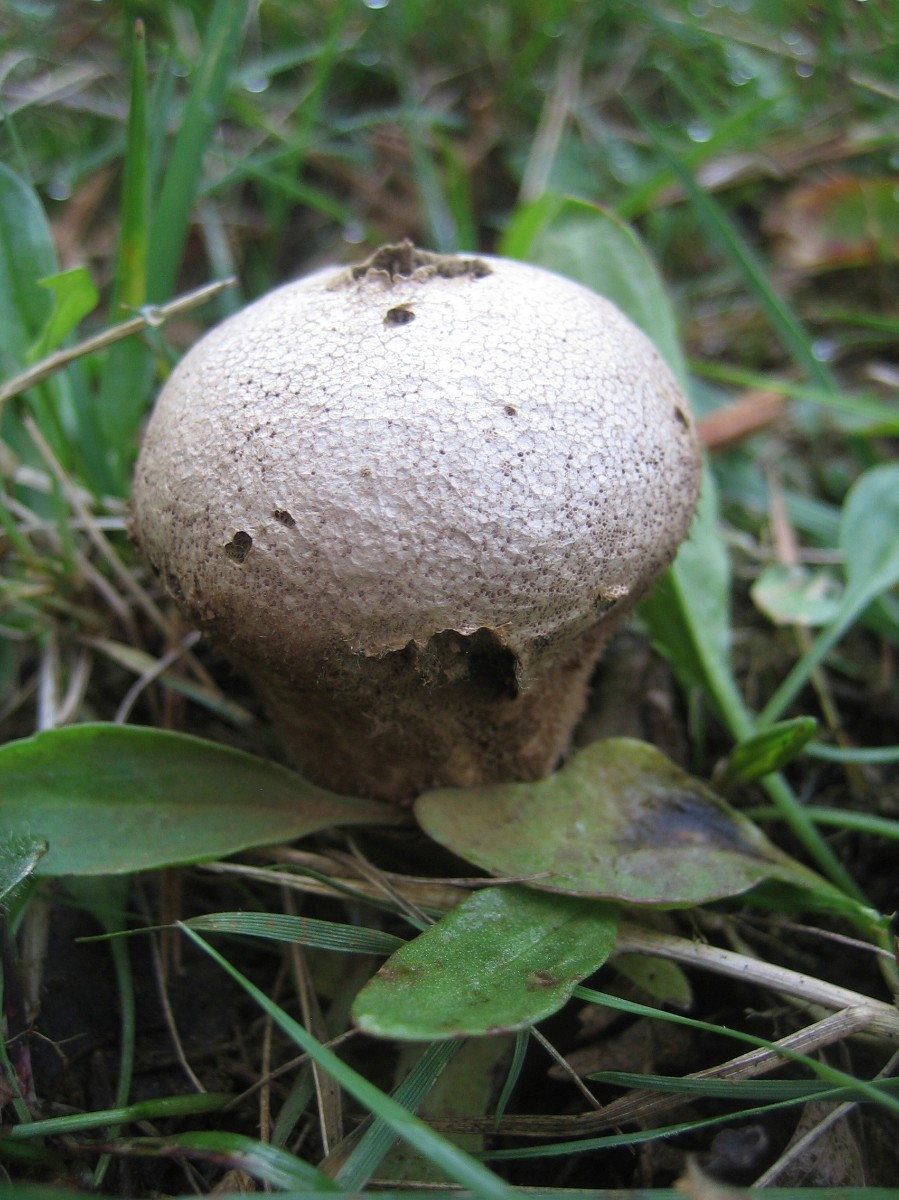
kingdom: Fungi
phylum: Basidiomycota
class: Agaricomycetes
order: Agaricales
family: Lycoperdaceae
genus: Lycoperdon
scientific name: Lycoperdon nigrescens
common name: sortagtig støvbold
